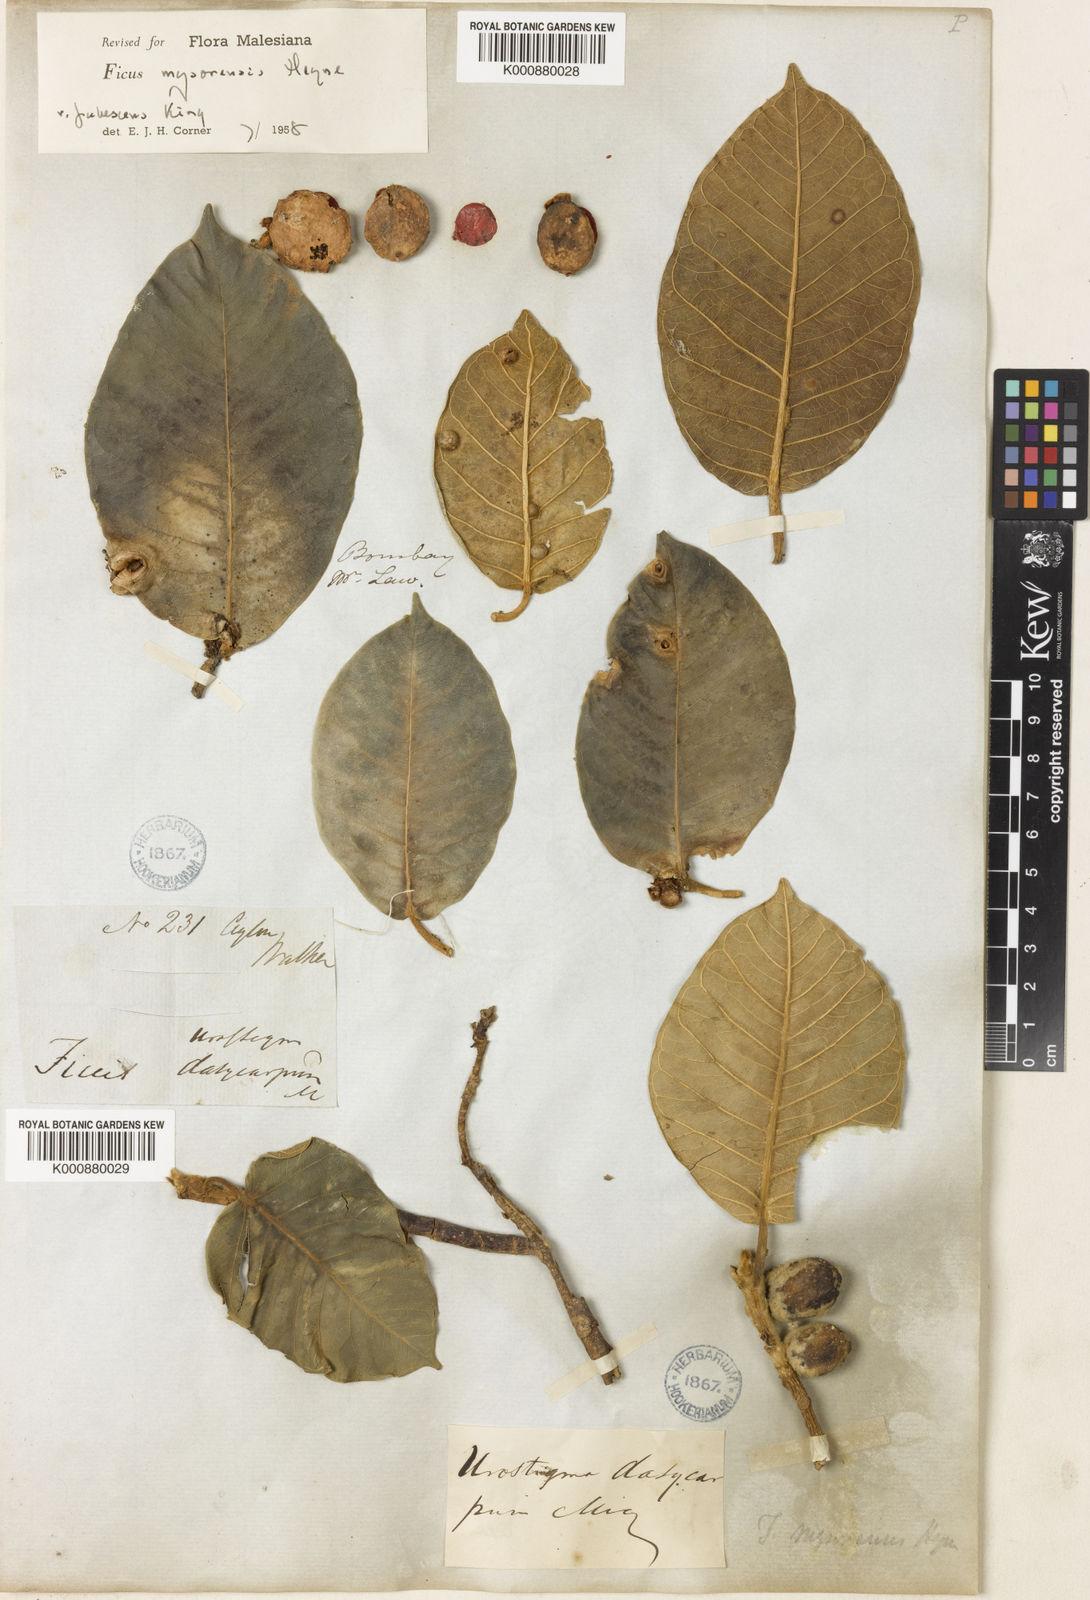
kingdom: Plantae
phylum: Tracheophyta
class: Magnoliopsida
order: Rosales
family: Moraceae
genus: Ficus
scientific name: Ficus drupacea
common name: Drupe fig
